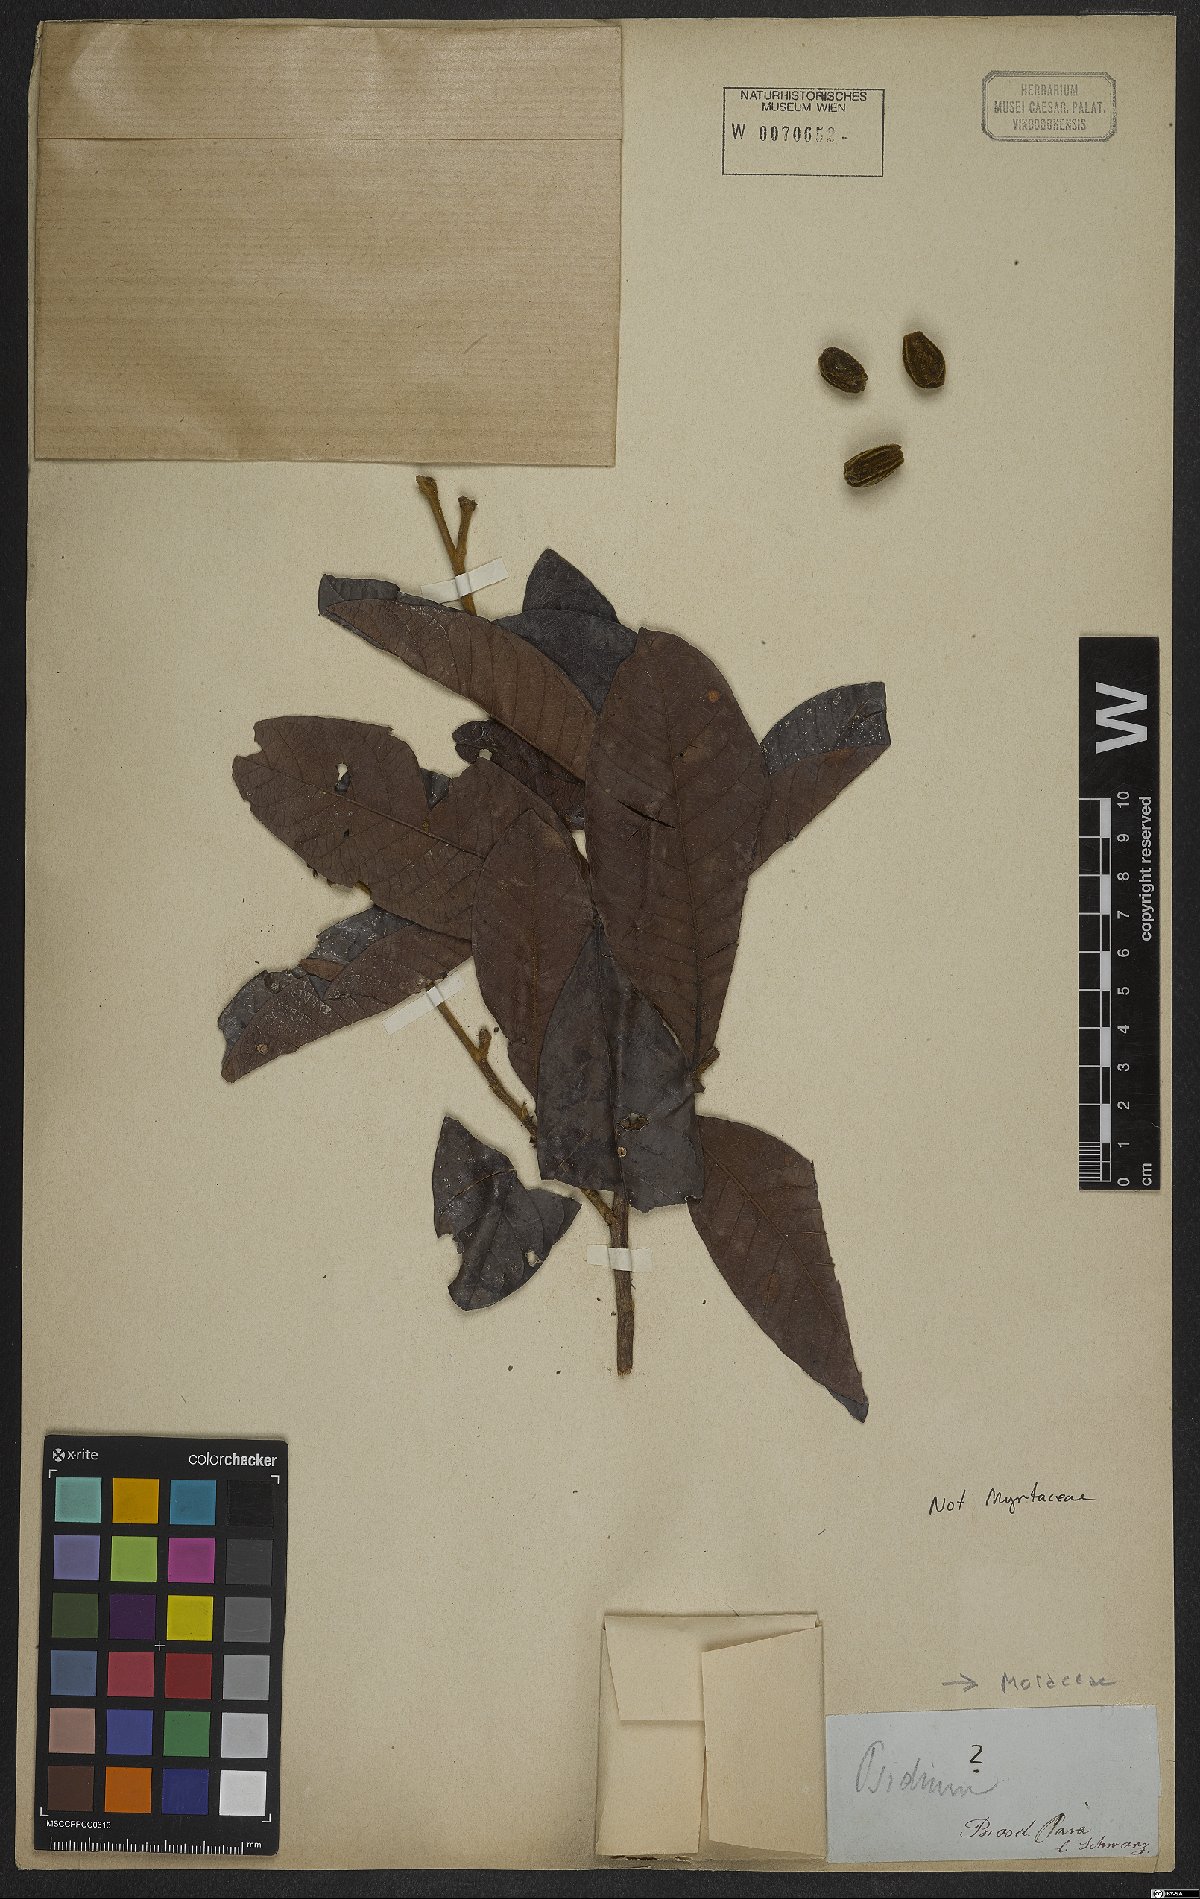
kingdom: Plantae
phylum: Tracheophyta
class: Magnoliopsida
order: Rosales
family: Moraceae
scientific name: Moraceae
